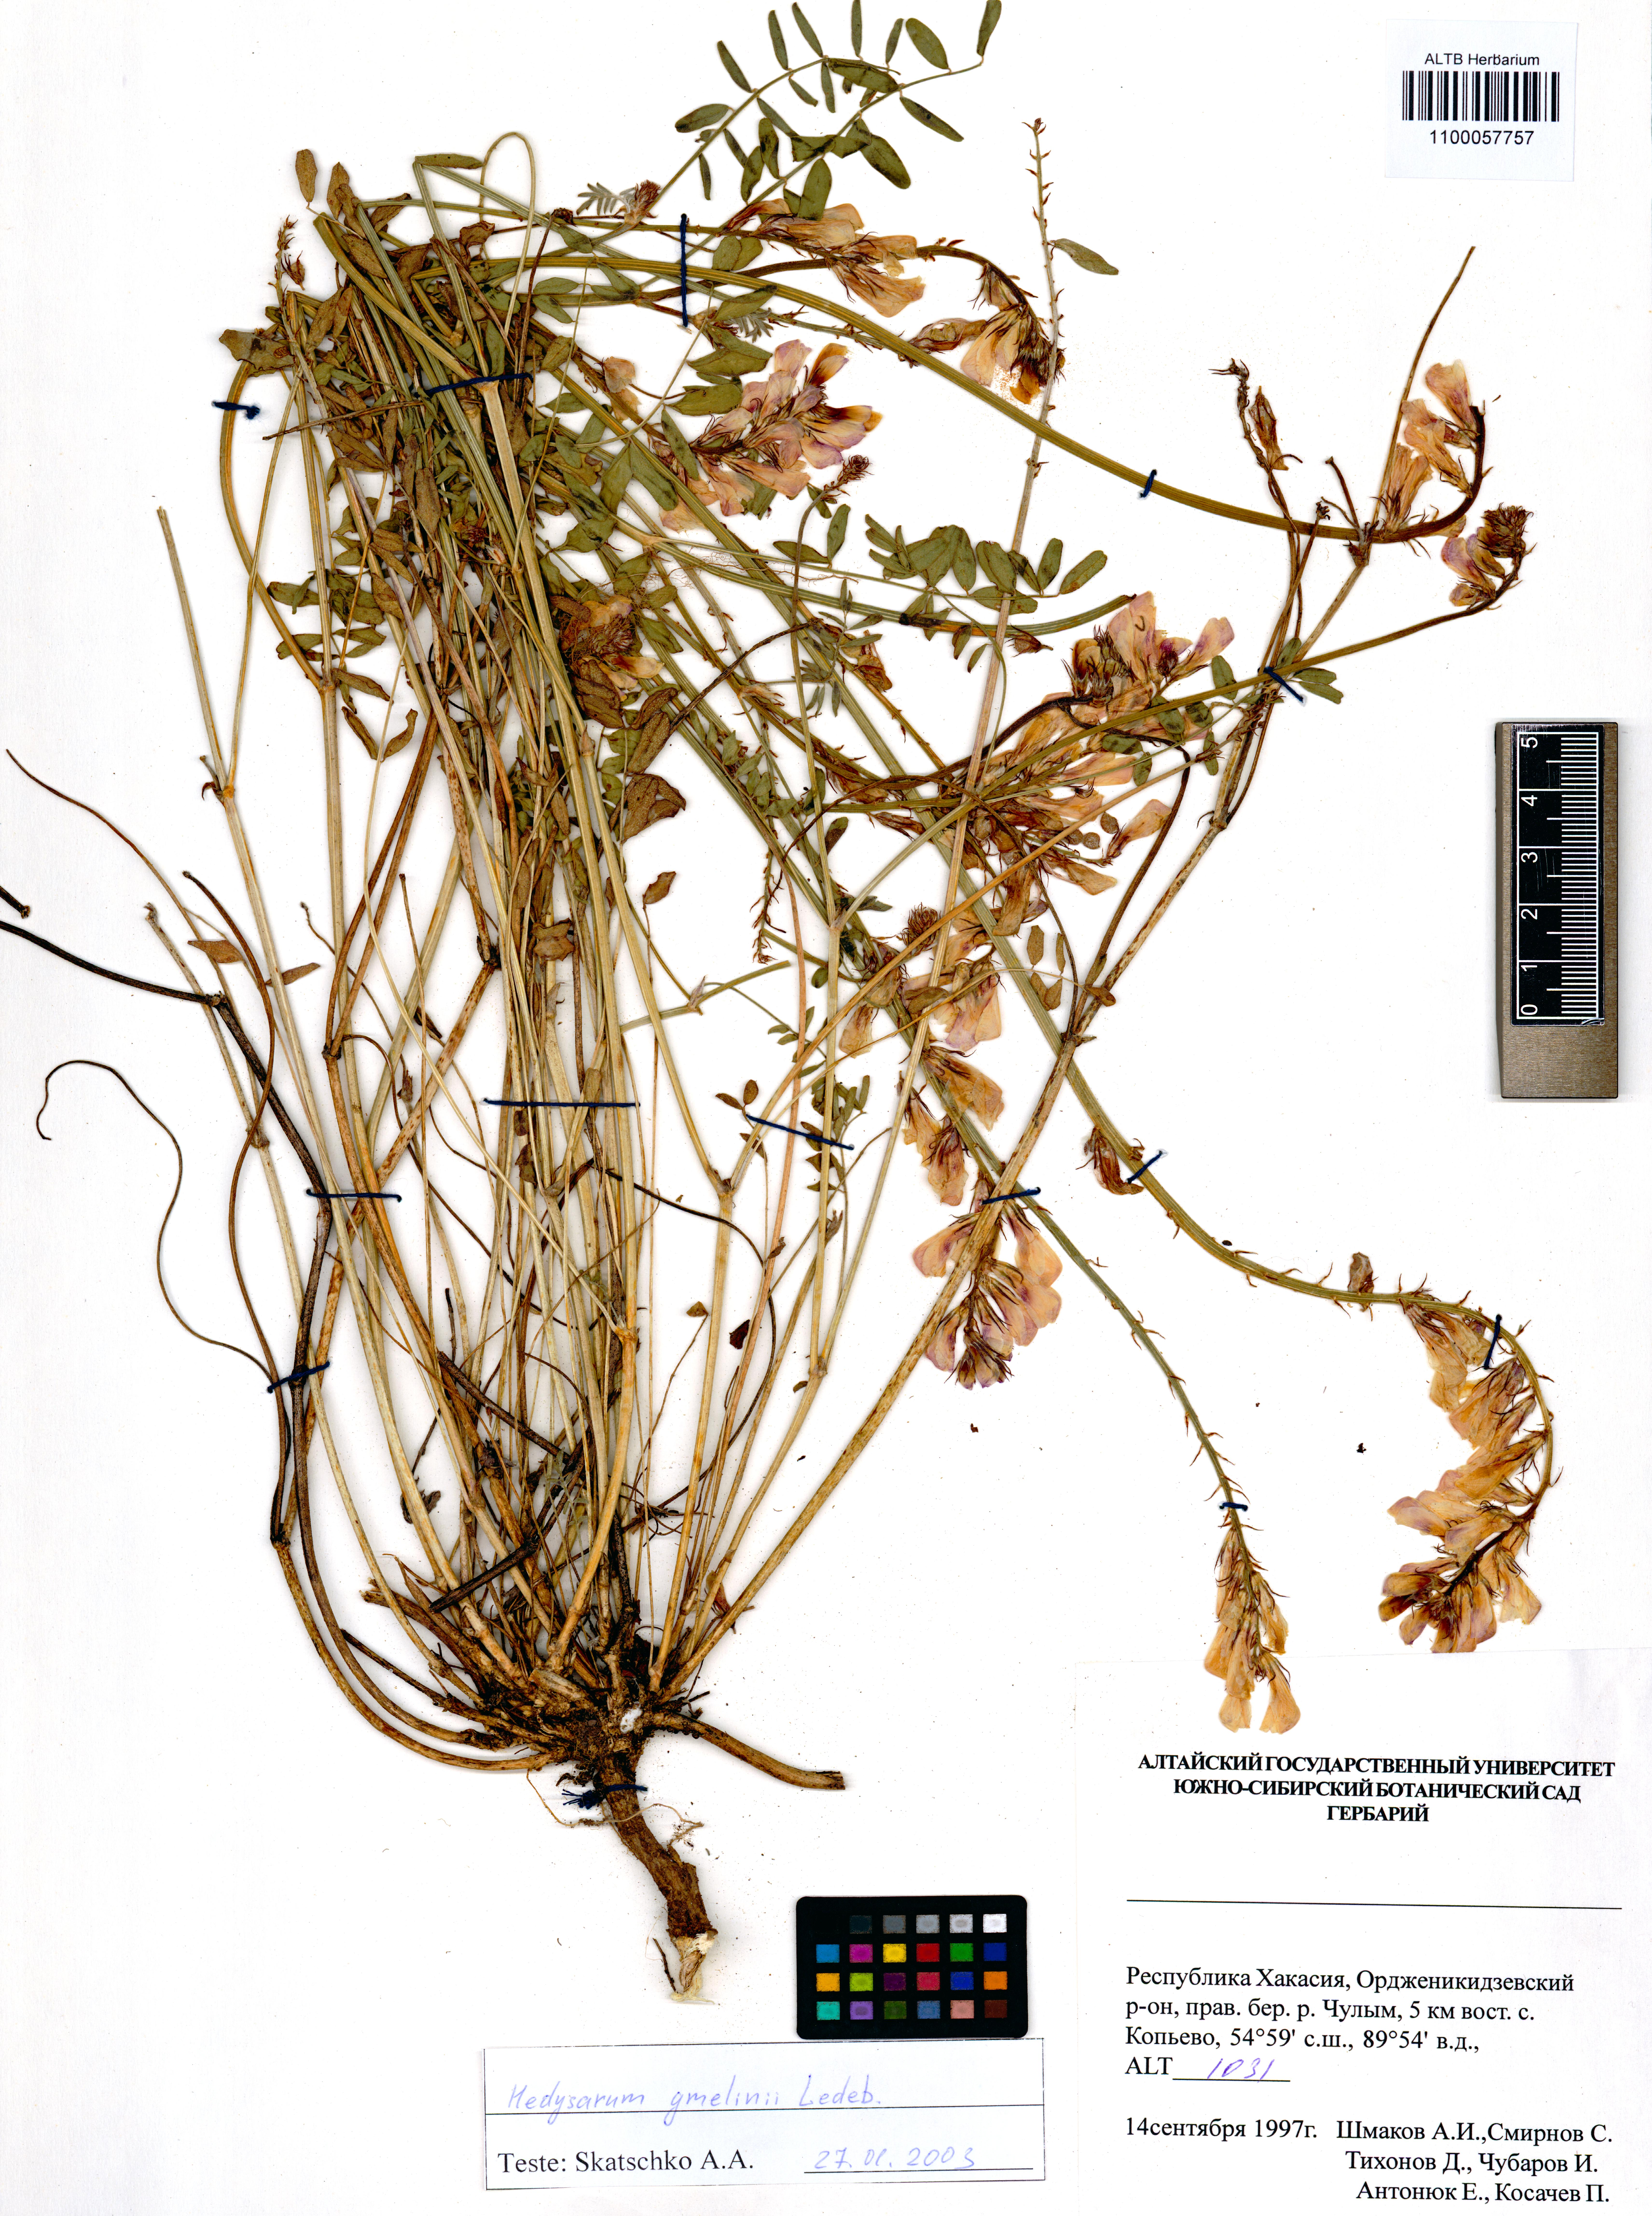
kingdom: Plantae
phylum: Tracheophyta
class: Magnoliopsida
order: Fabales
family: Fabaceae
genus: Hedysarum
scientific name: Hedysarum gmelinii
